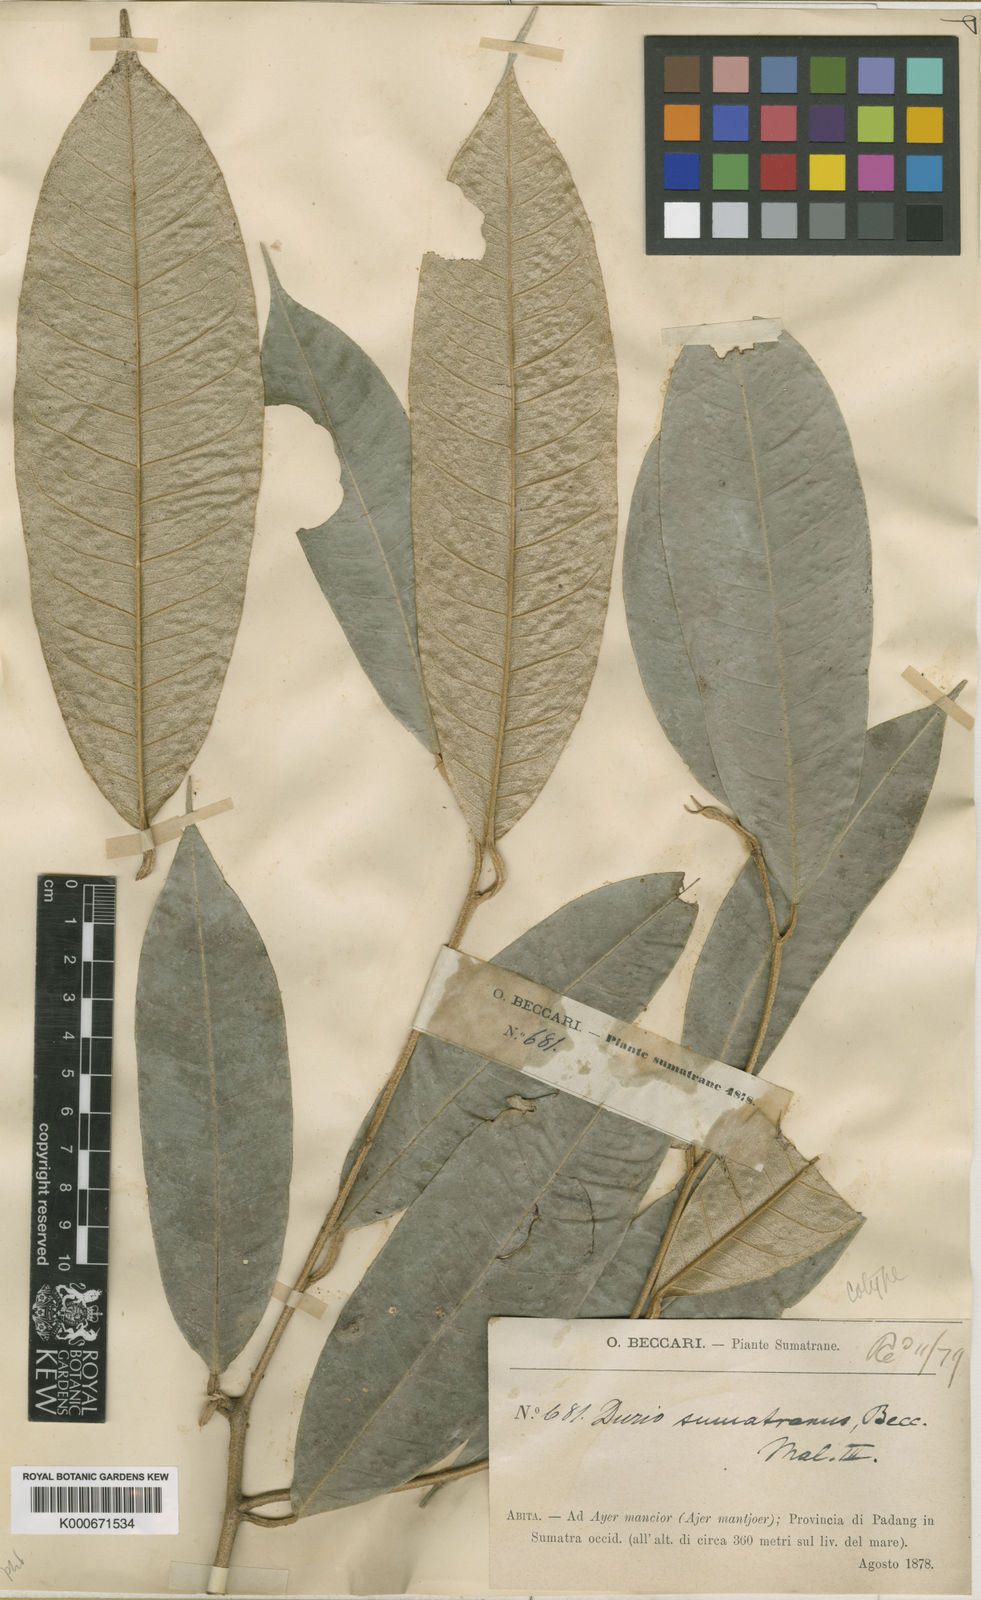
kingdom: Plantae
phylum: Tracheophyta
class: Magnoliopsida
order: Malvales
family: Malvaceae
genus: Durio
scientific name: Durio oblongus
